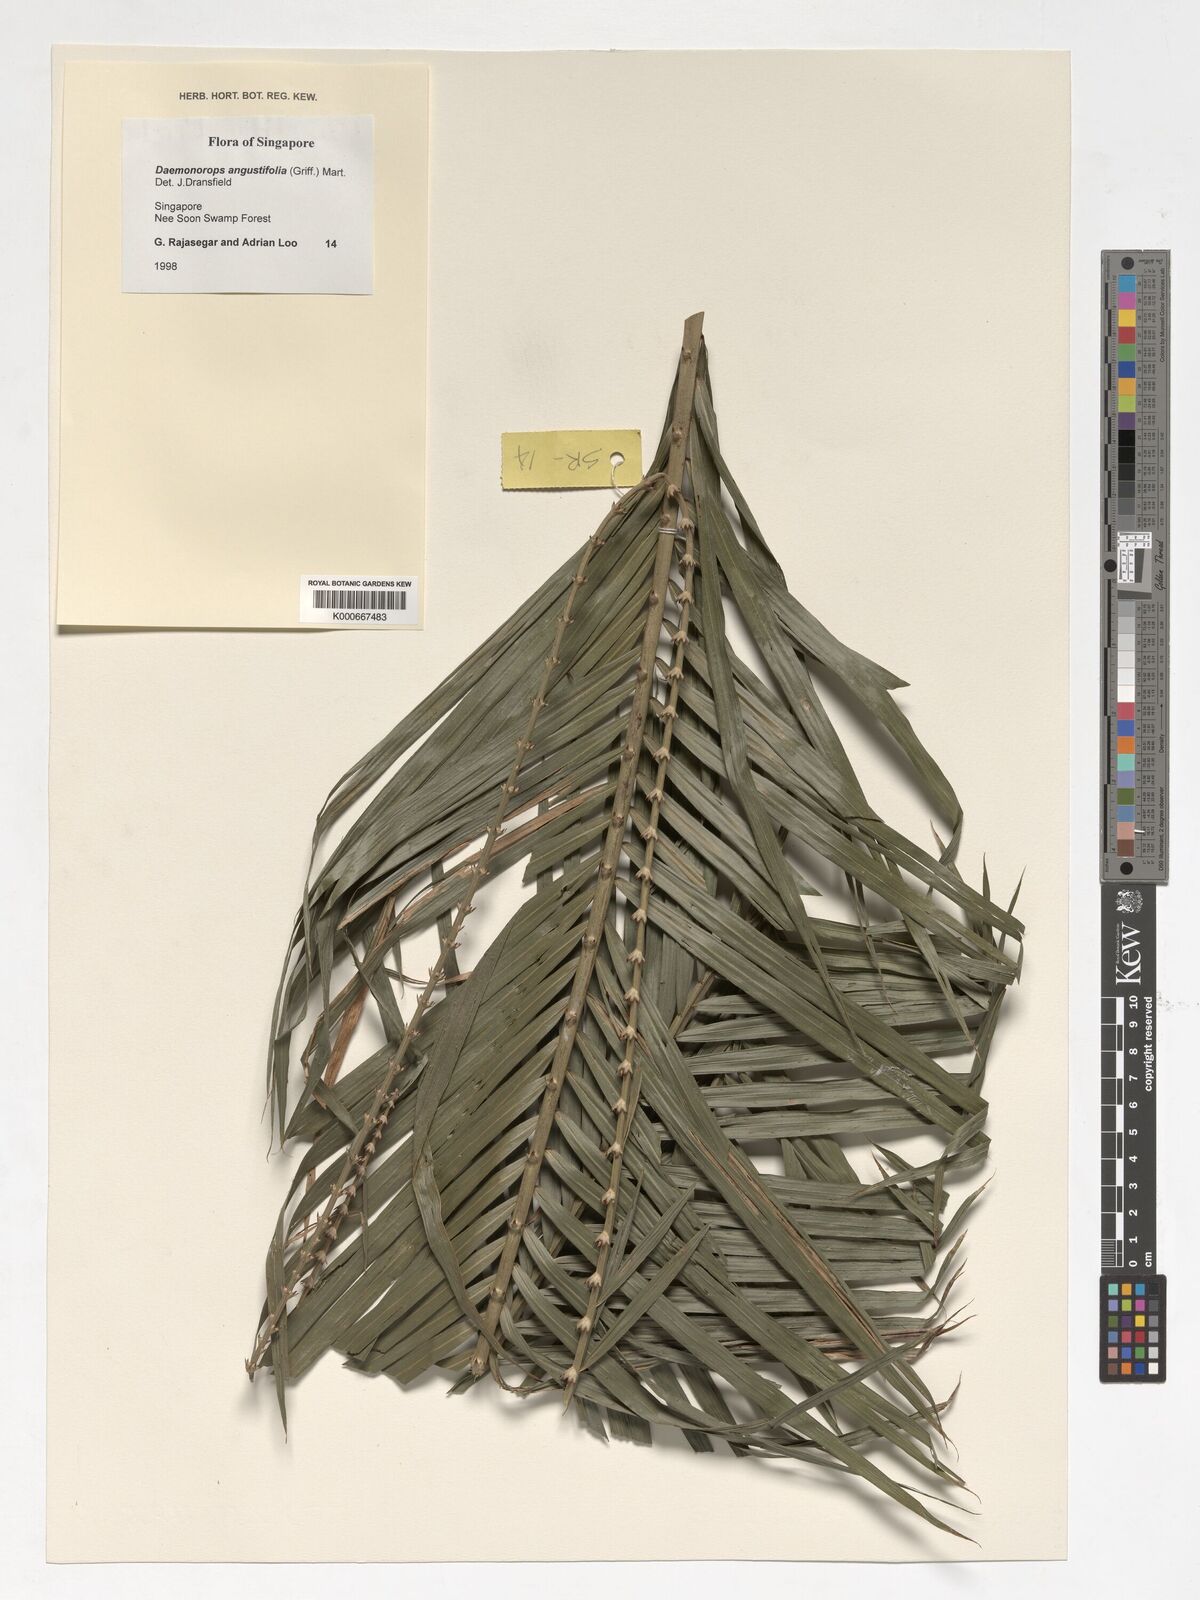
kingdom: Plantae
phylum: Tracheophyta
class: Liliopsida
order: Arecales
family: Arecaceae
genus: Calamus
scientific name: Calamus melanochaetes
